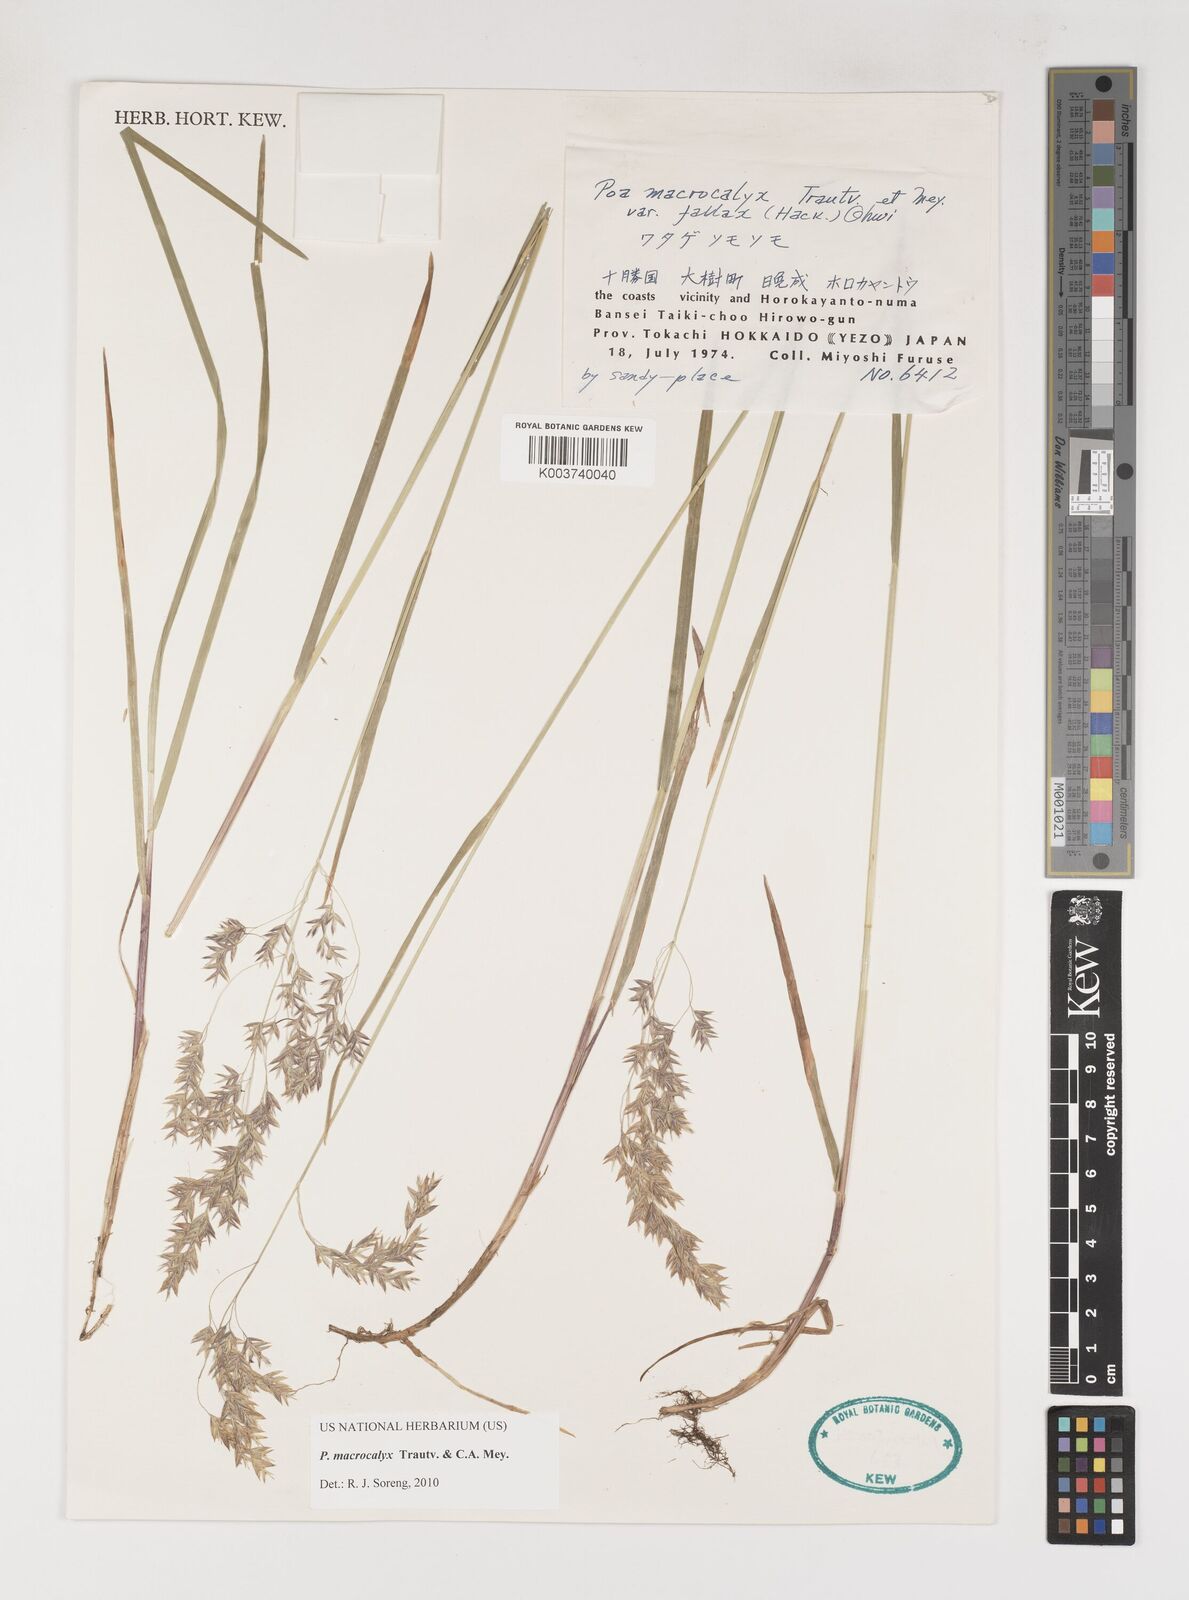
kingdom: Plantae
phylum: Tracheophyta
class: Liliopsida
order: Poales
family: Poaceae
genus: Poa
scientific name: Poa macrocalyx
